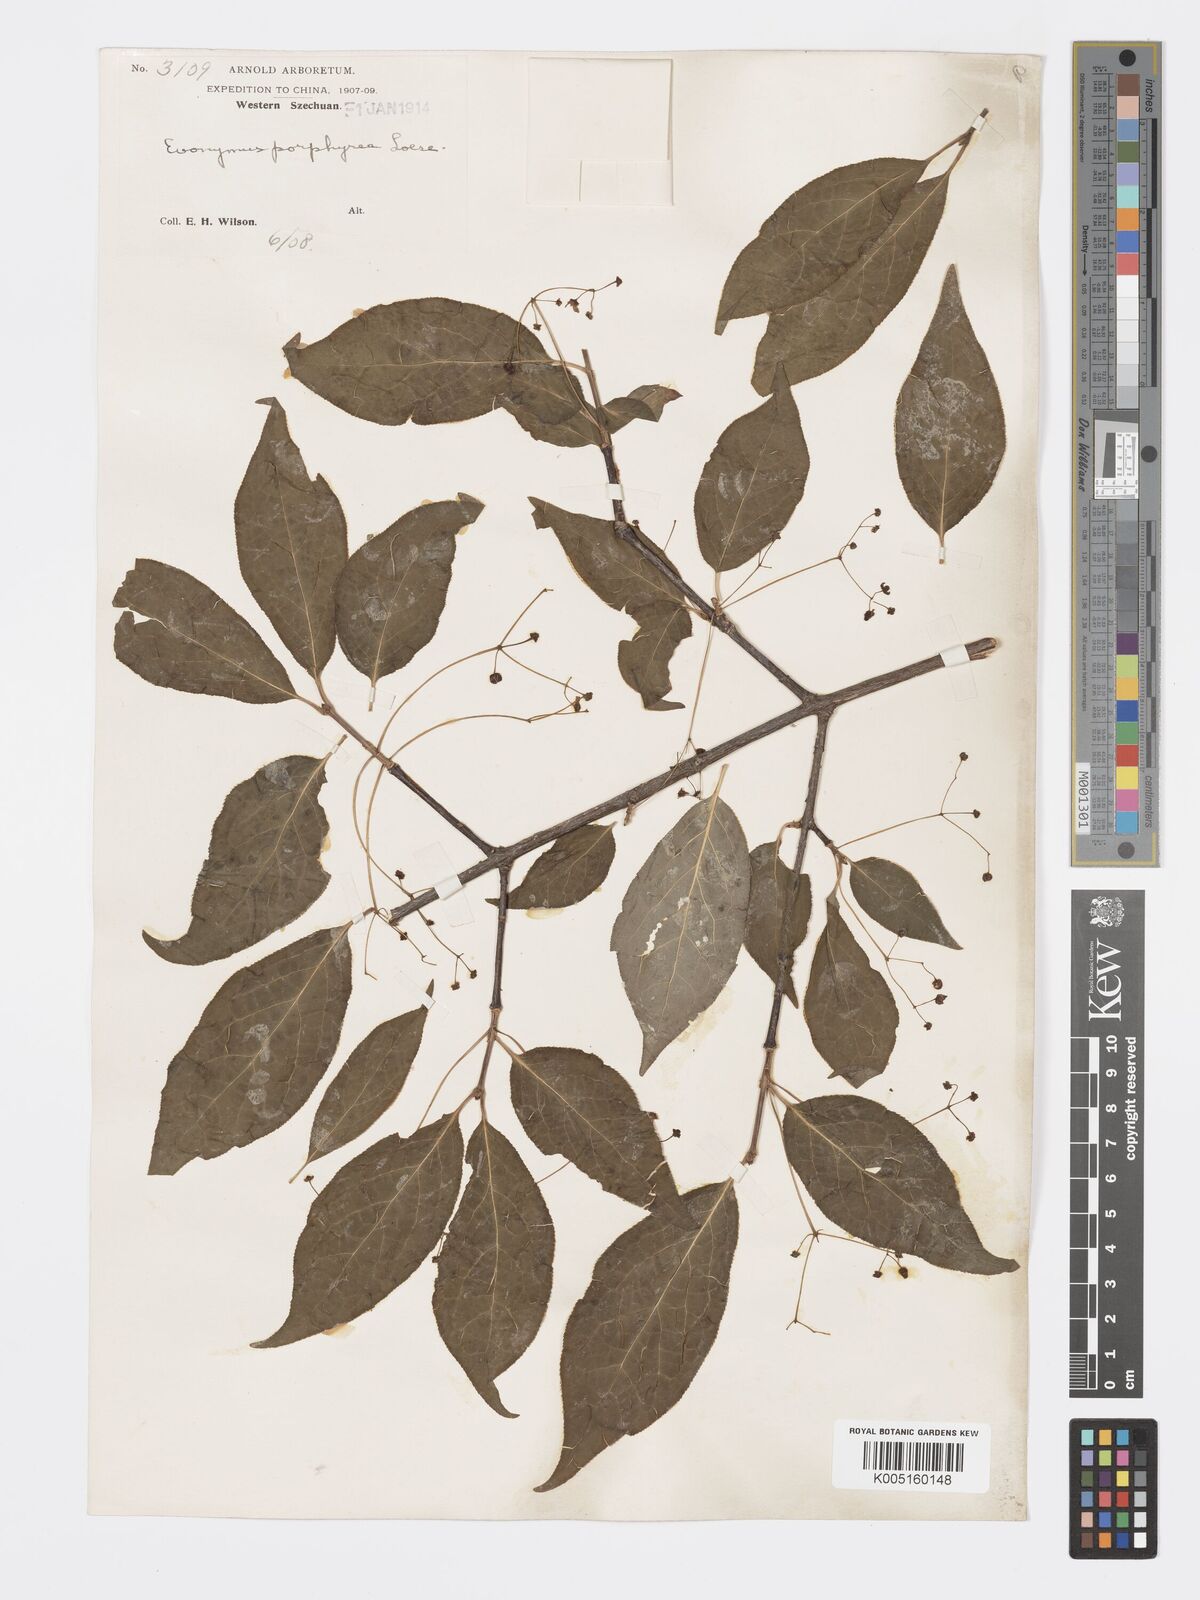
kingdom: Plantae
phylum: Tracheophyta
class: Magnoliopsida
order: Celastrales
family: Celastraceae
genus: Euonymus
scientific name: Euonymus frigidus
